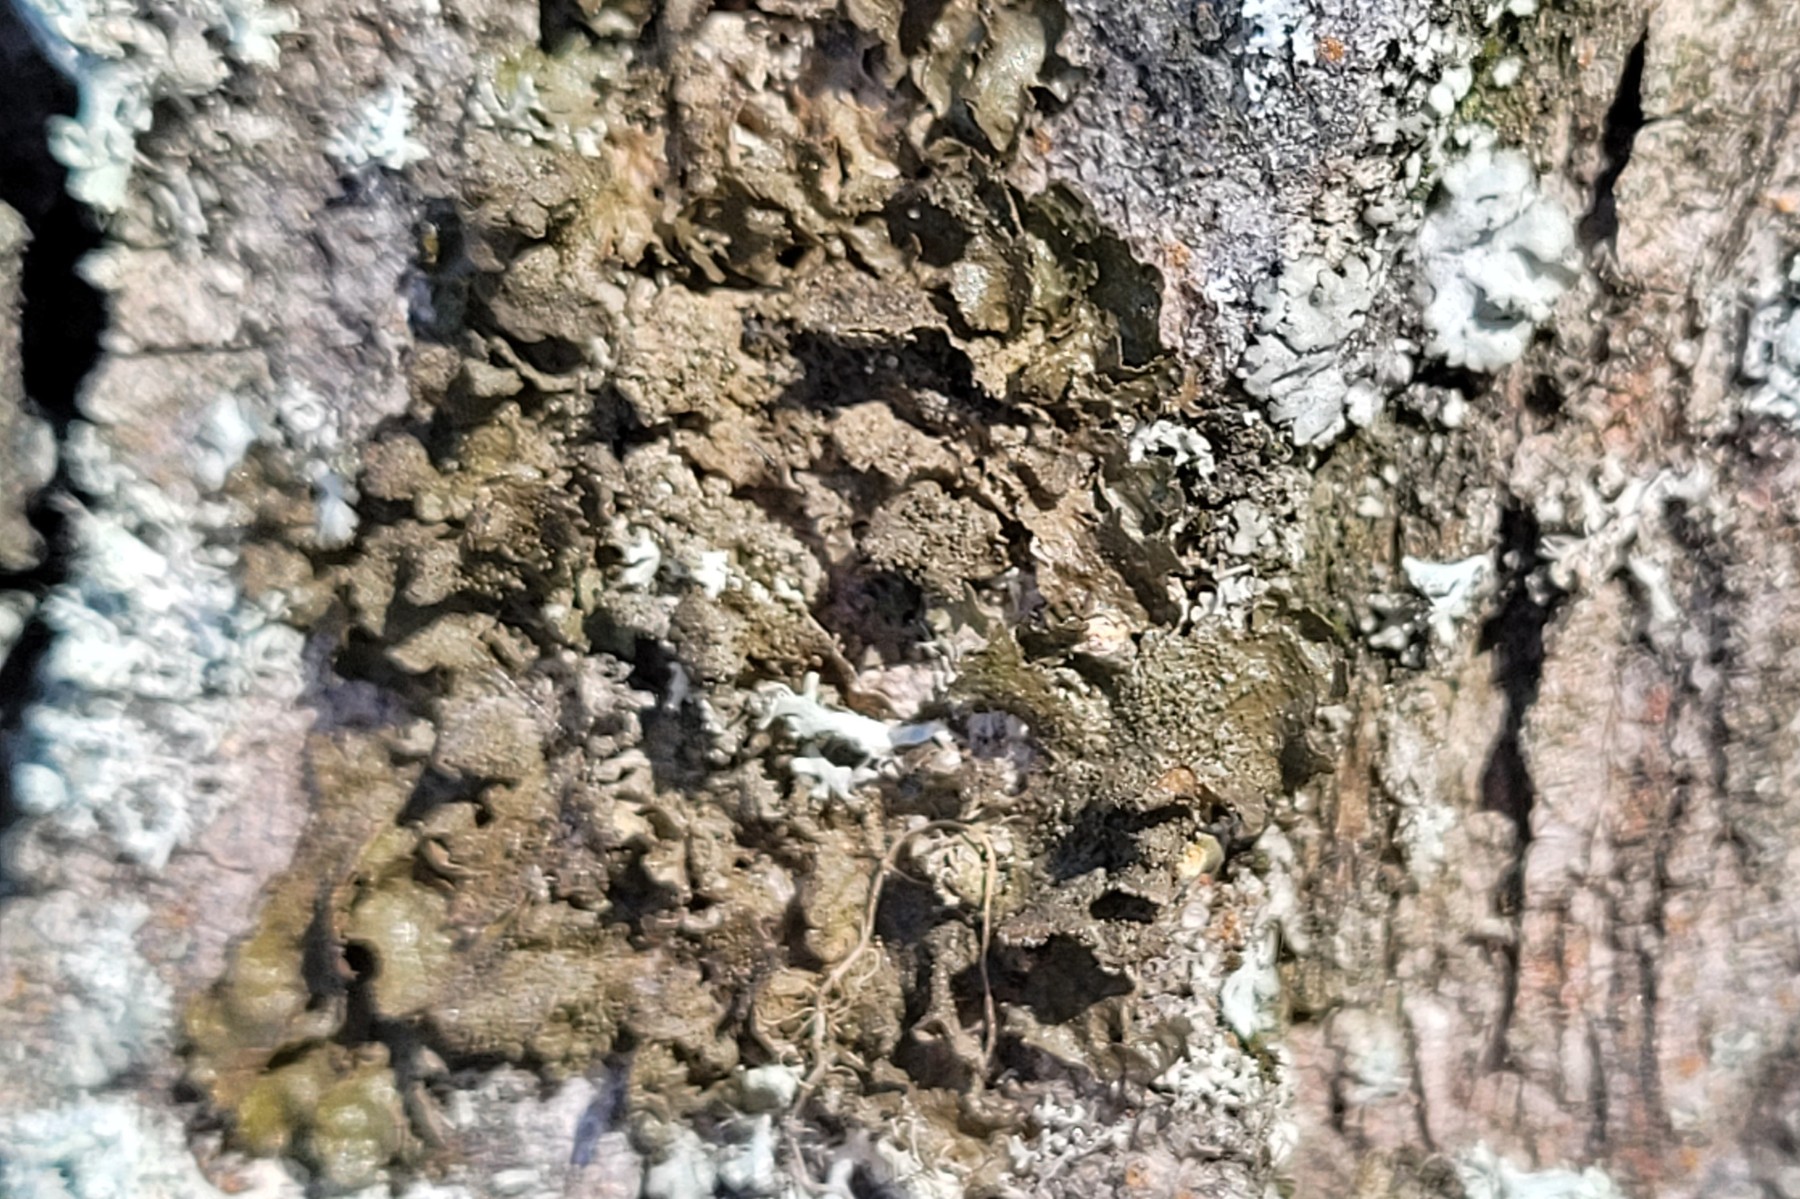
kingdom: Fungi
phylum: Ascomycota
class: Lecanoromycetes
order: Lecanorales
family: Parmeliaceae
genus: Melanelixia
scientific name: Melanelixia glabratula
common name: glinsende skållav
